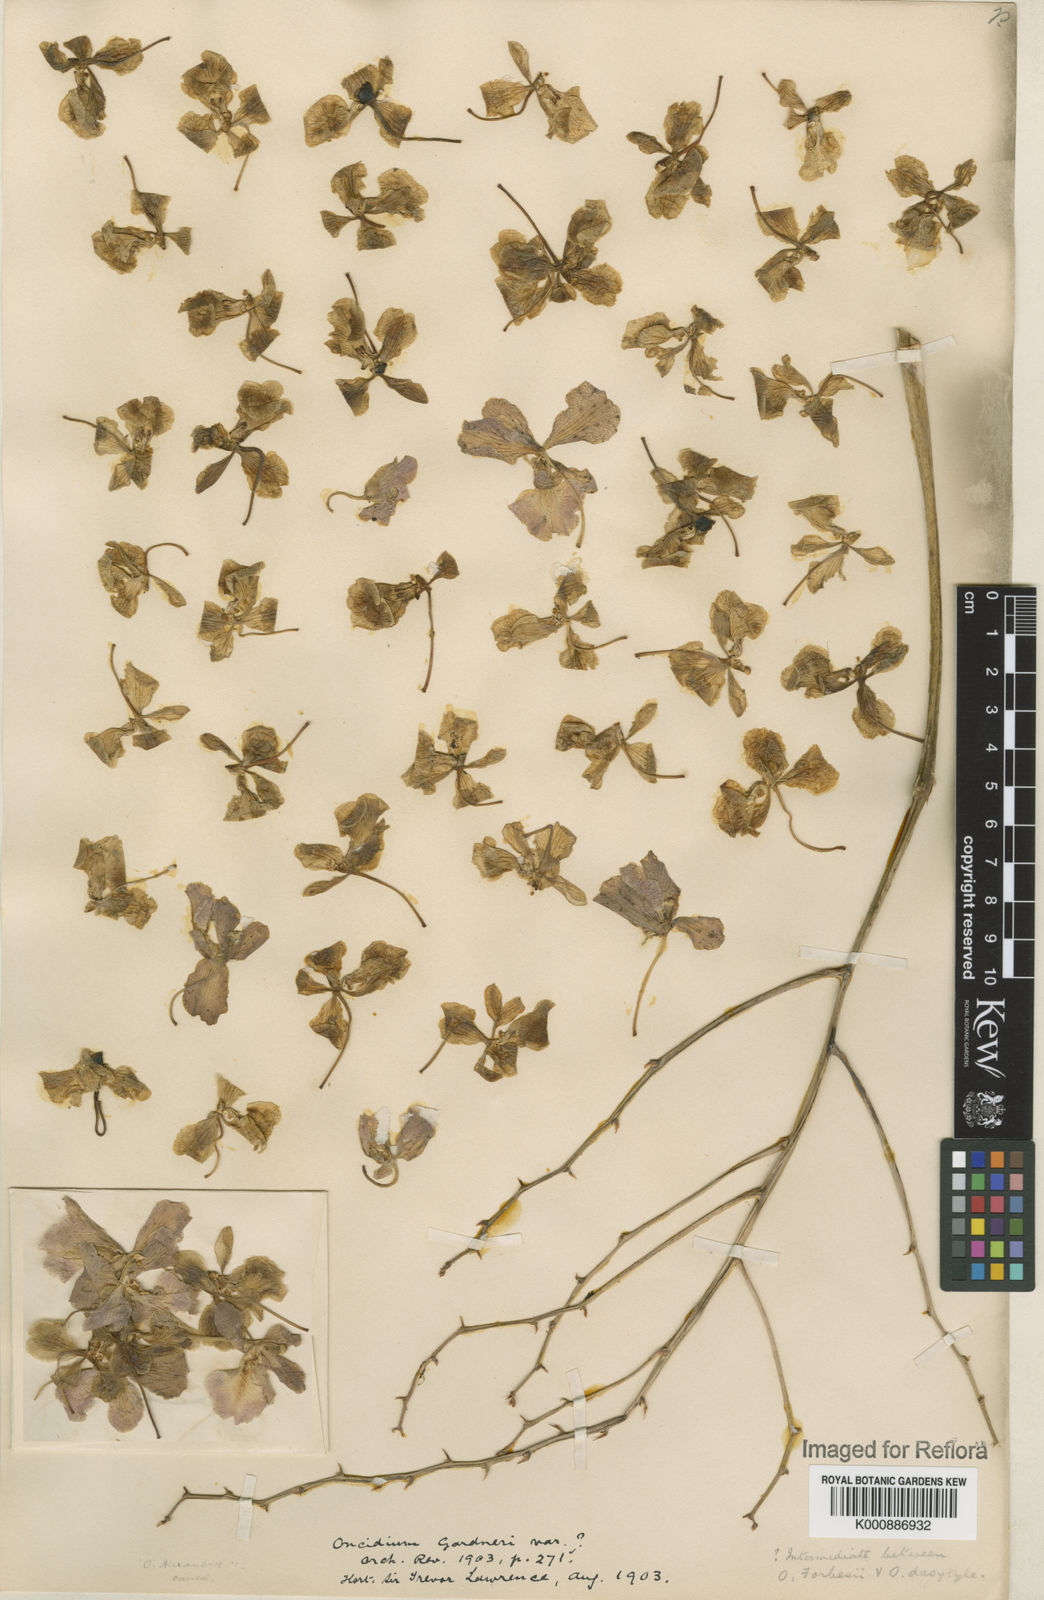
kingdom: Plantae
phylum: Tracheophyta
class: Liliopsida
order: Asparagales
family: Orchidaceae
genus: Gomesa
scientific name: Gomesa gardneri
